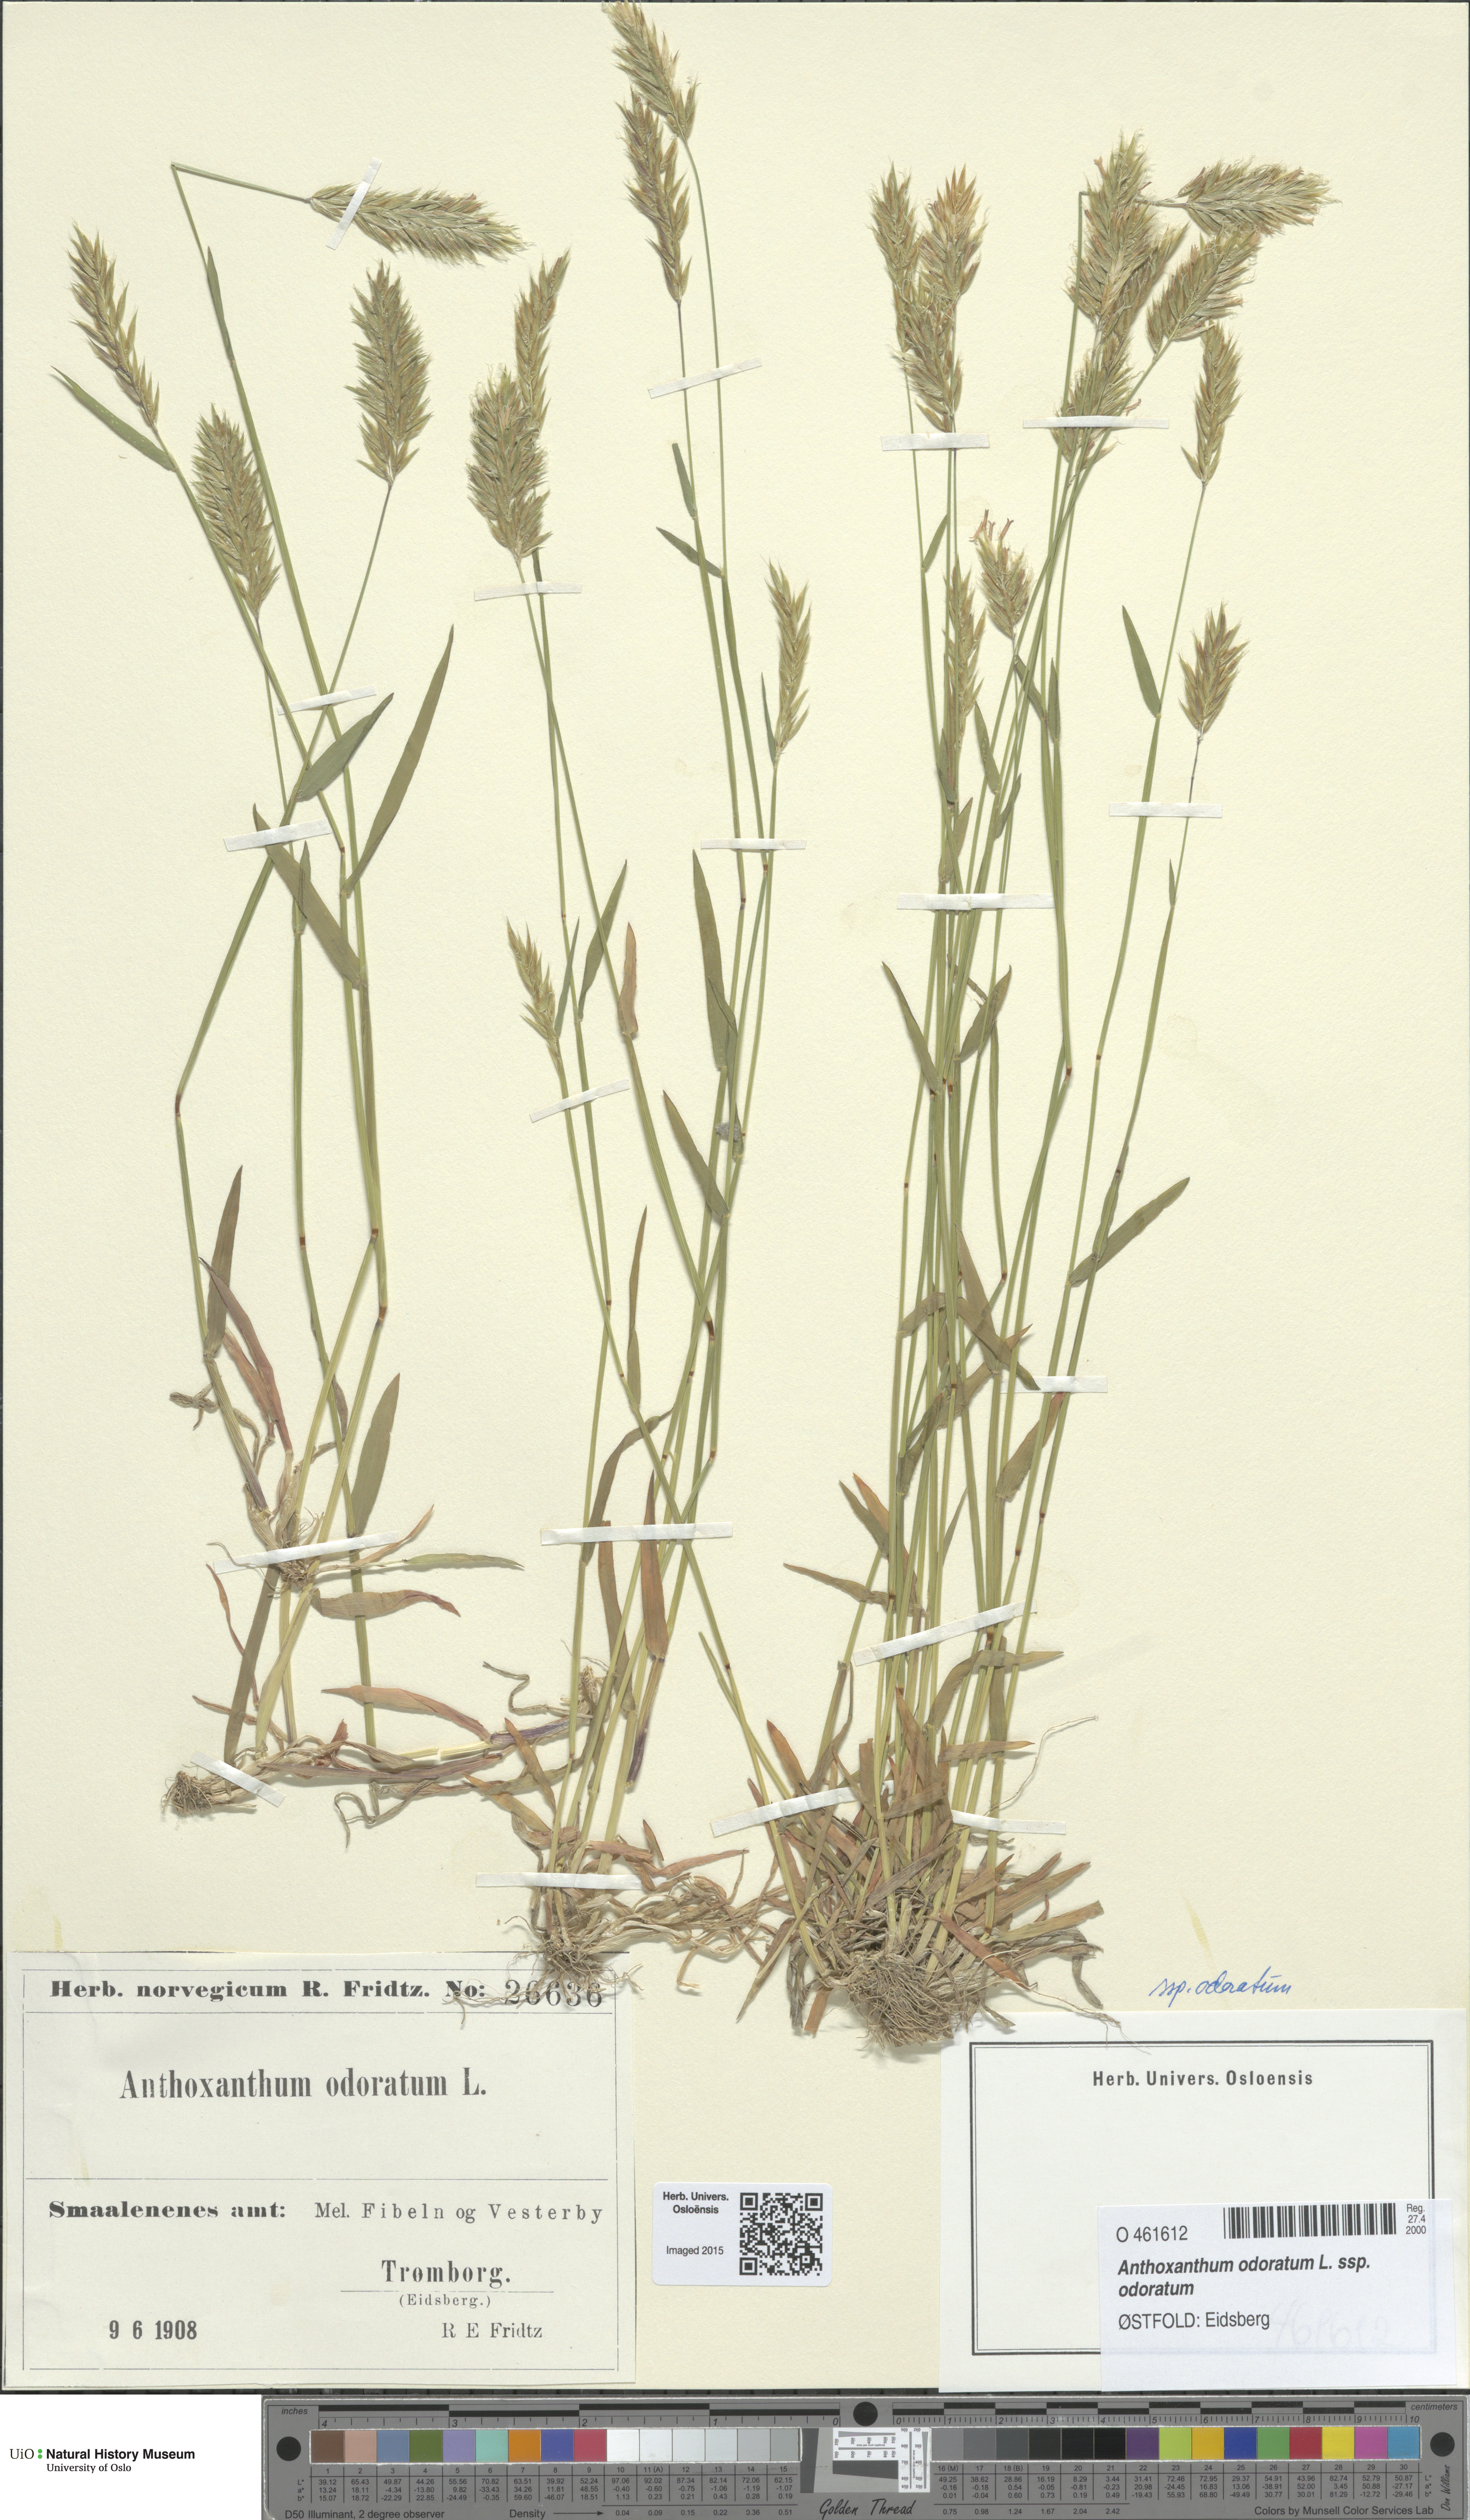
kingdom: Plantae
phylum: Tracheophyta
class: Liliopsida
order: Poales
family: Poaceae
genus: Anthoxanthum
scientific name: Anthoxanthum odoratum
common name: Sweet vernalgrass
